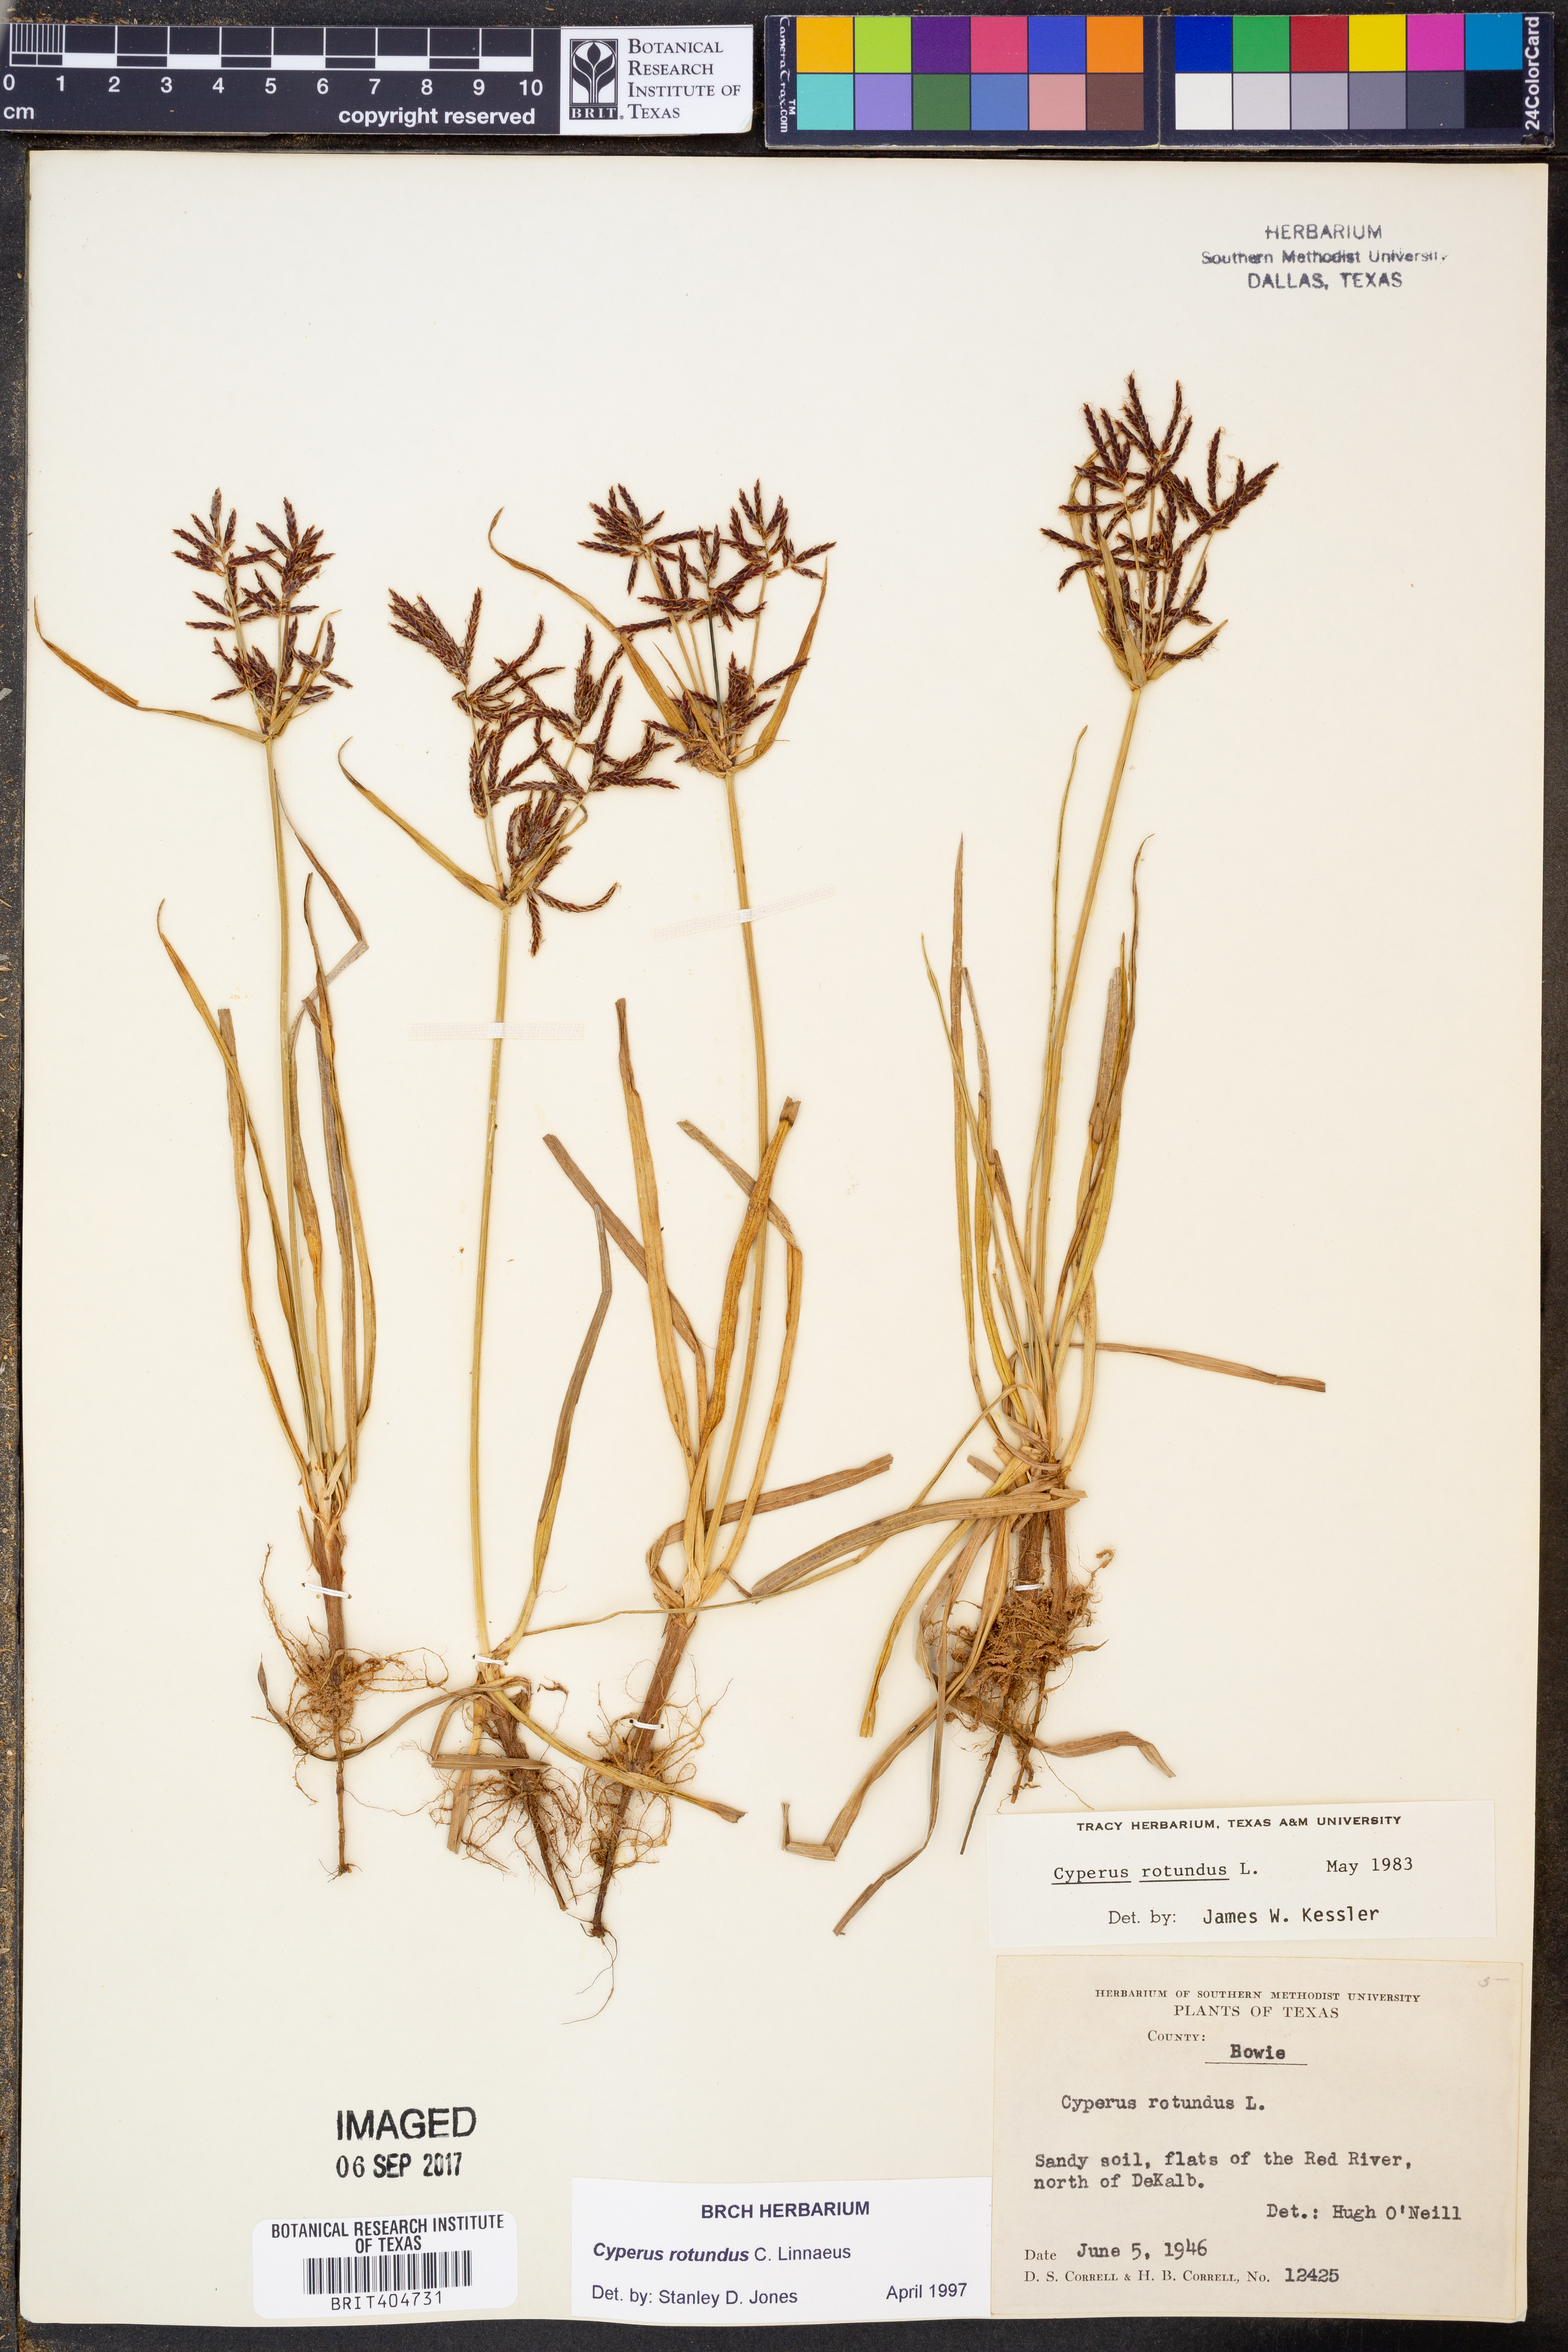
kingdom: Plantae
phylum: Tracheophyta
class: Liliopsida
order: Poales
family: Cyperaceae
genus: Cyperus
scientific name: Cyperus rotundus
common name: Nutgrass
